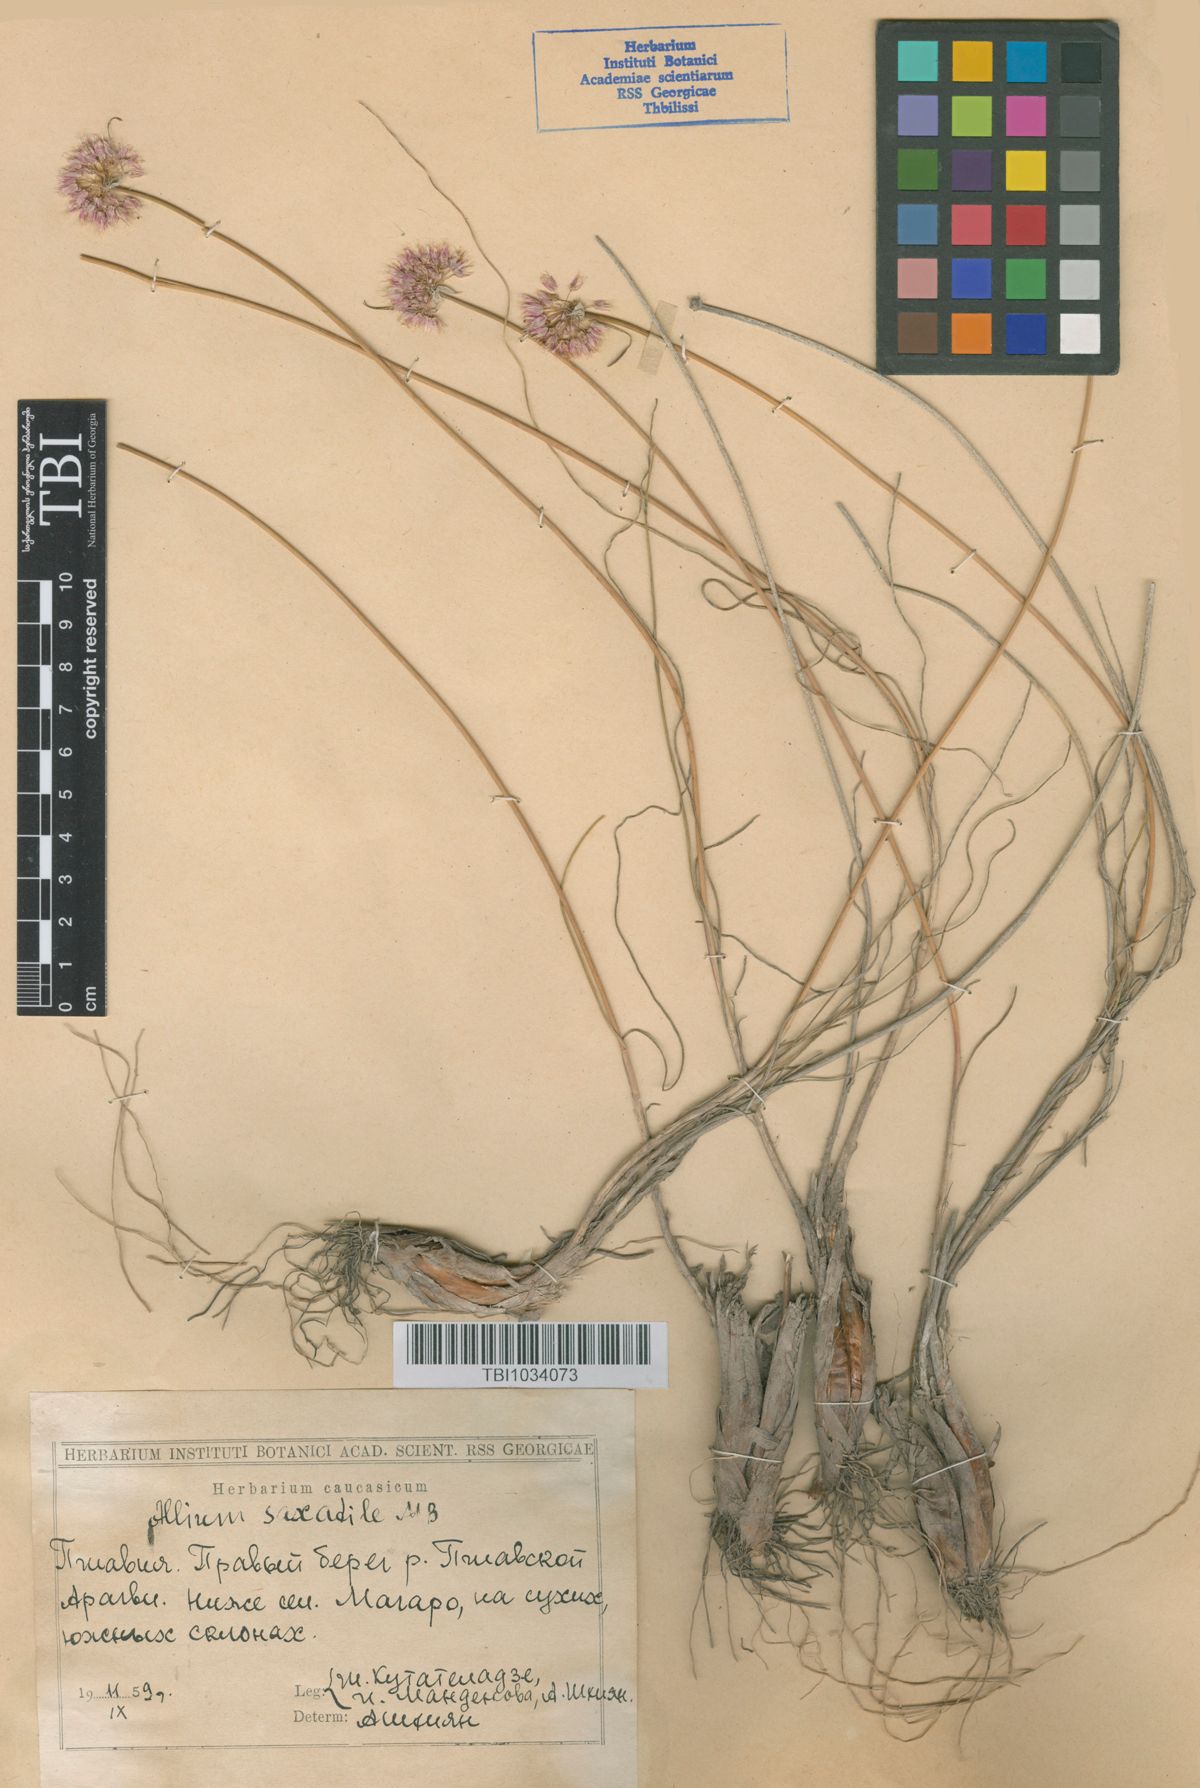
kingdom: Plantae
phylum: Tracheophyta
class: Liliopsida
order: Asparagales
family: Amaryllidaceae
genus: Allium
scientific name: Allium saxatile
